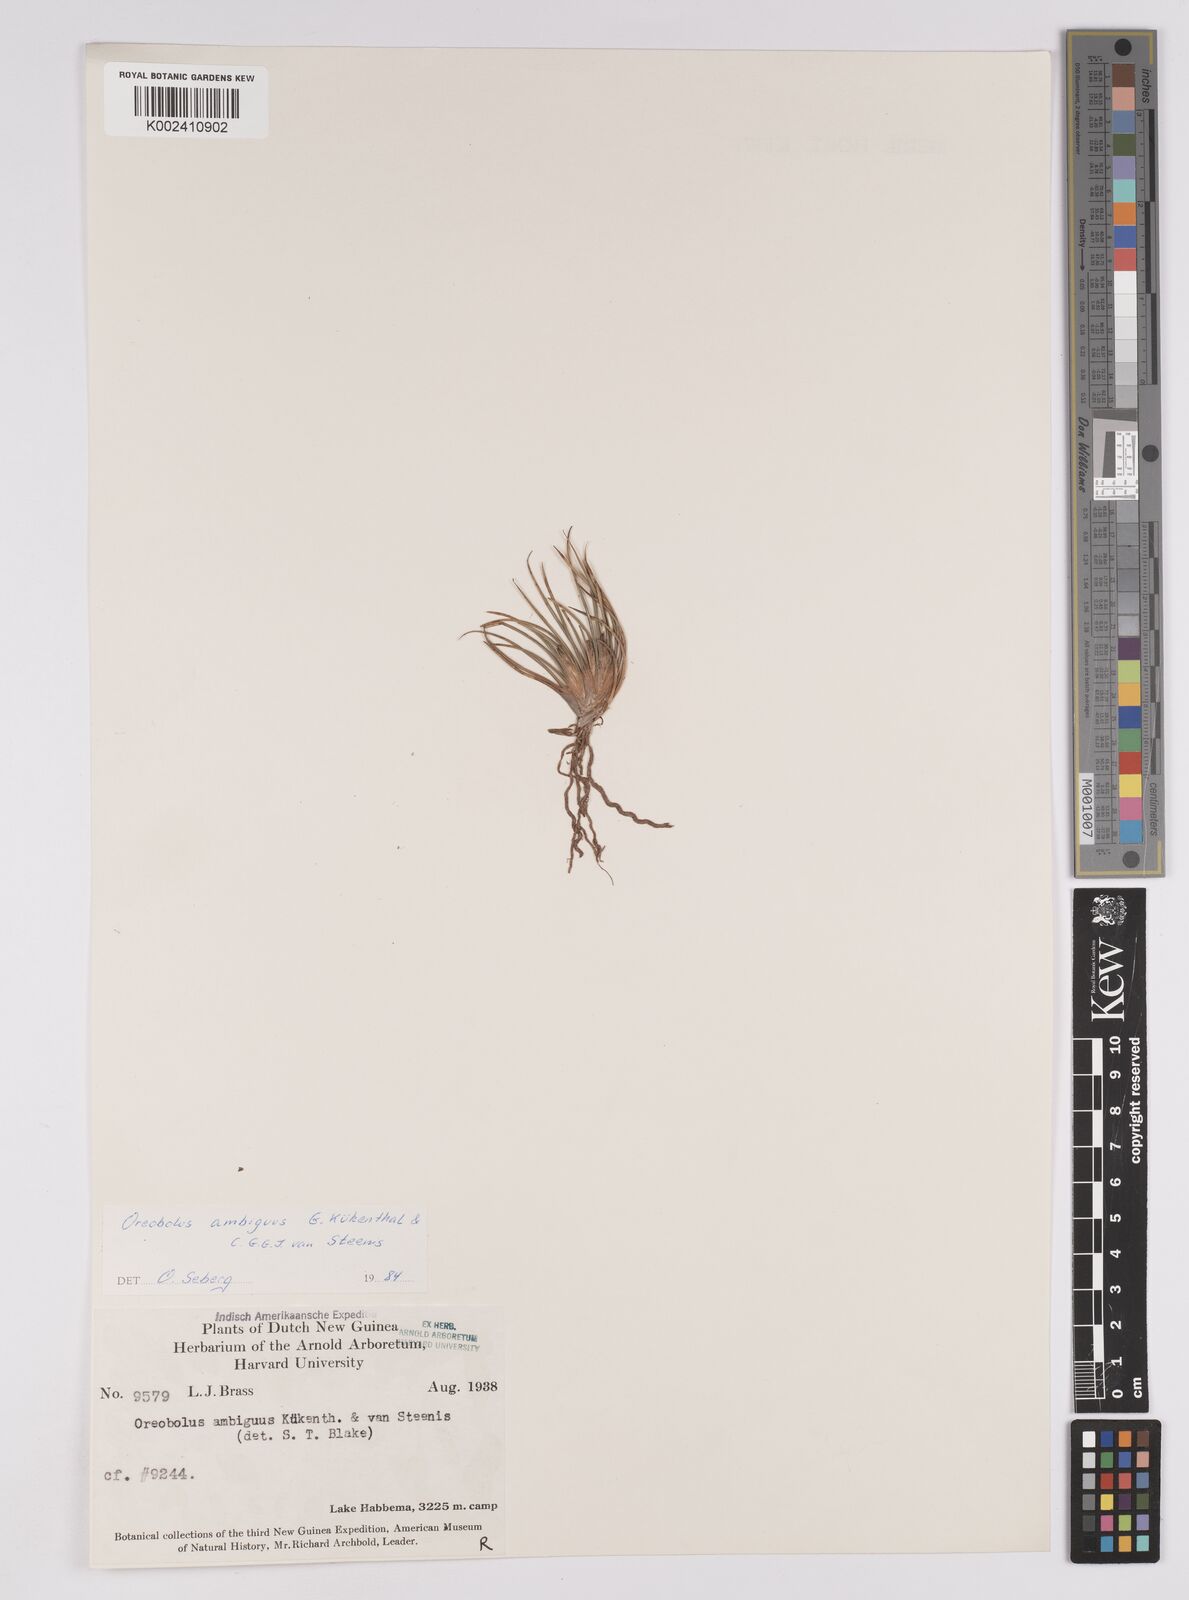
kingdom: Plantae
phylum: Tracheophyta
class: Liliopsida
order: Poales
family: Cyperaceae
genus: Oreobolus
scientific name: Oreobolus ambiguus
